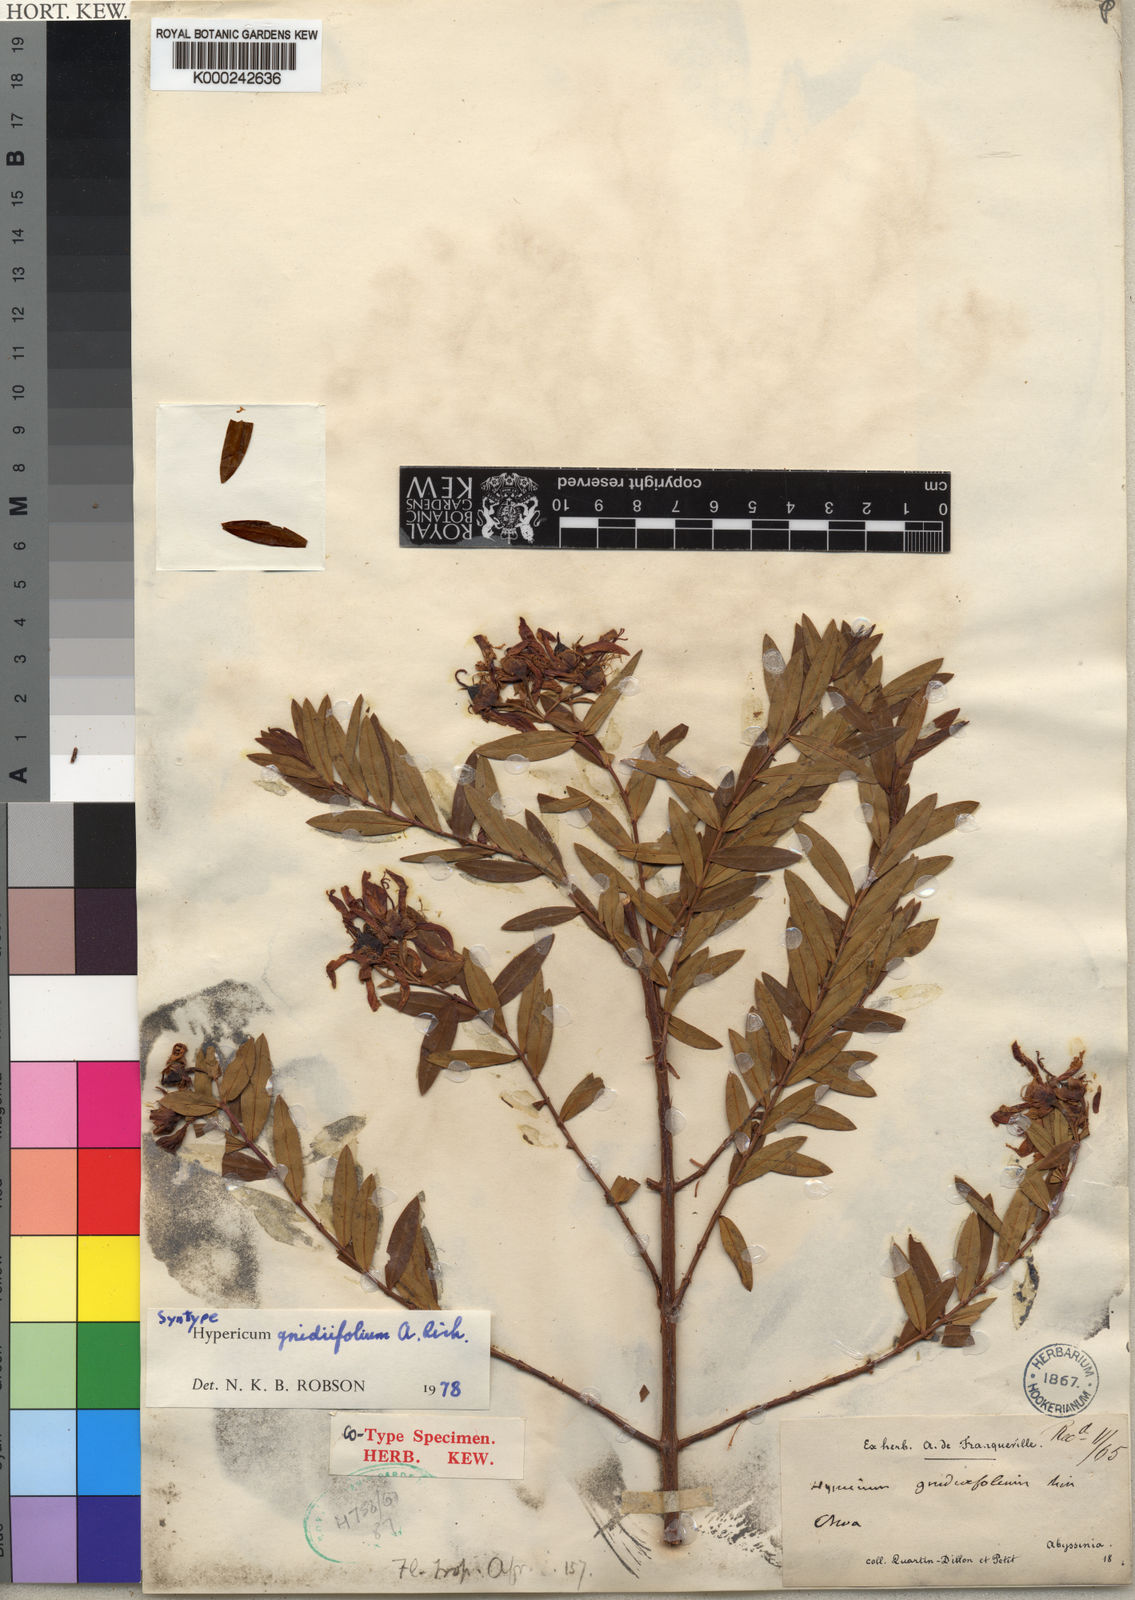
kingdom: Plantae
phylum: Tracheophyta
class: Magnoliopsida
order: Malpighiales
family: Hypericaceae
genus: Hypericum
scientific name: Hypericum
